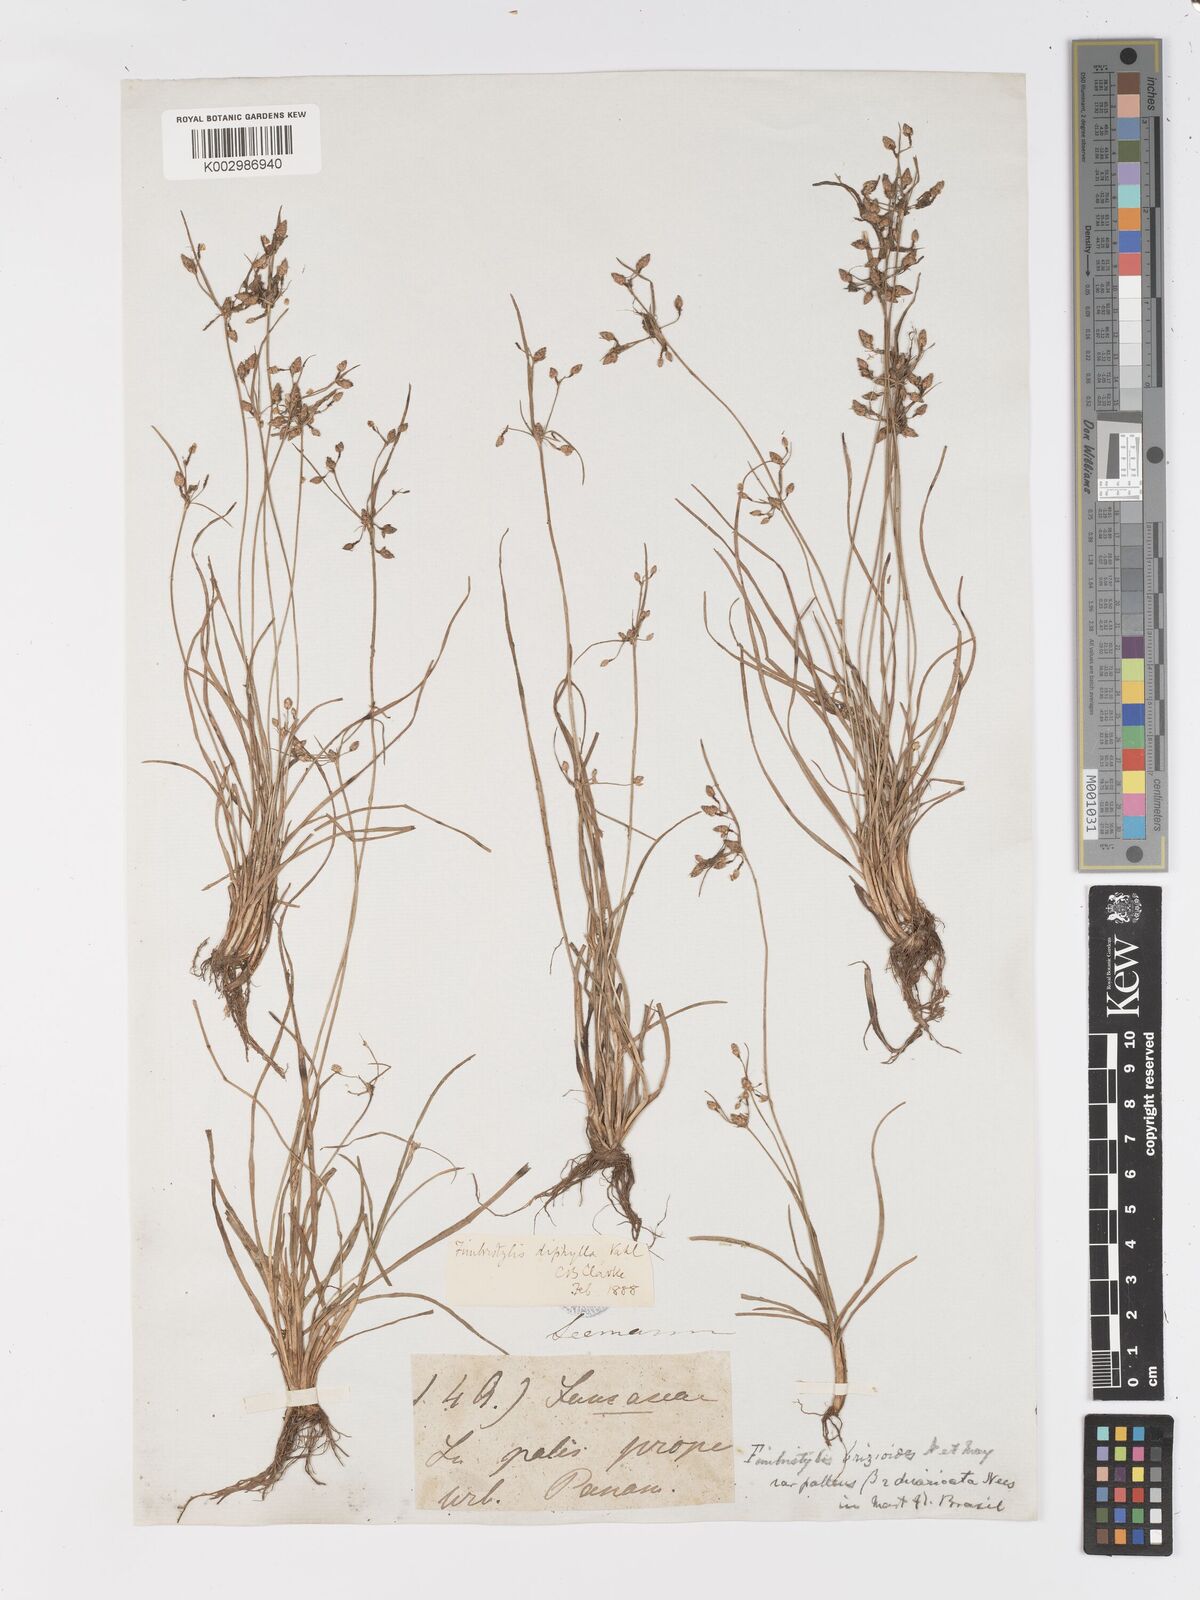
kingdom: Plantae
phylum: Tracheophyta
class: Liliopsida
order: Poales
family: Cyperaceae
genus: Fimbristylis
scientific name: Fimbristylis dichotoma
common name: Forked fimbry
